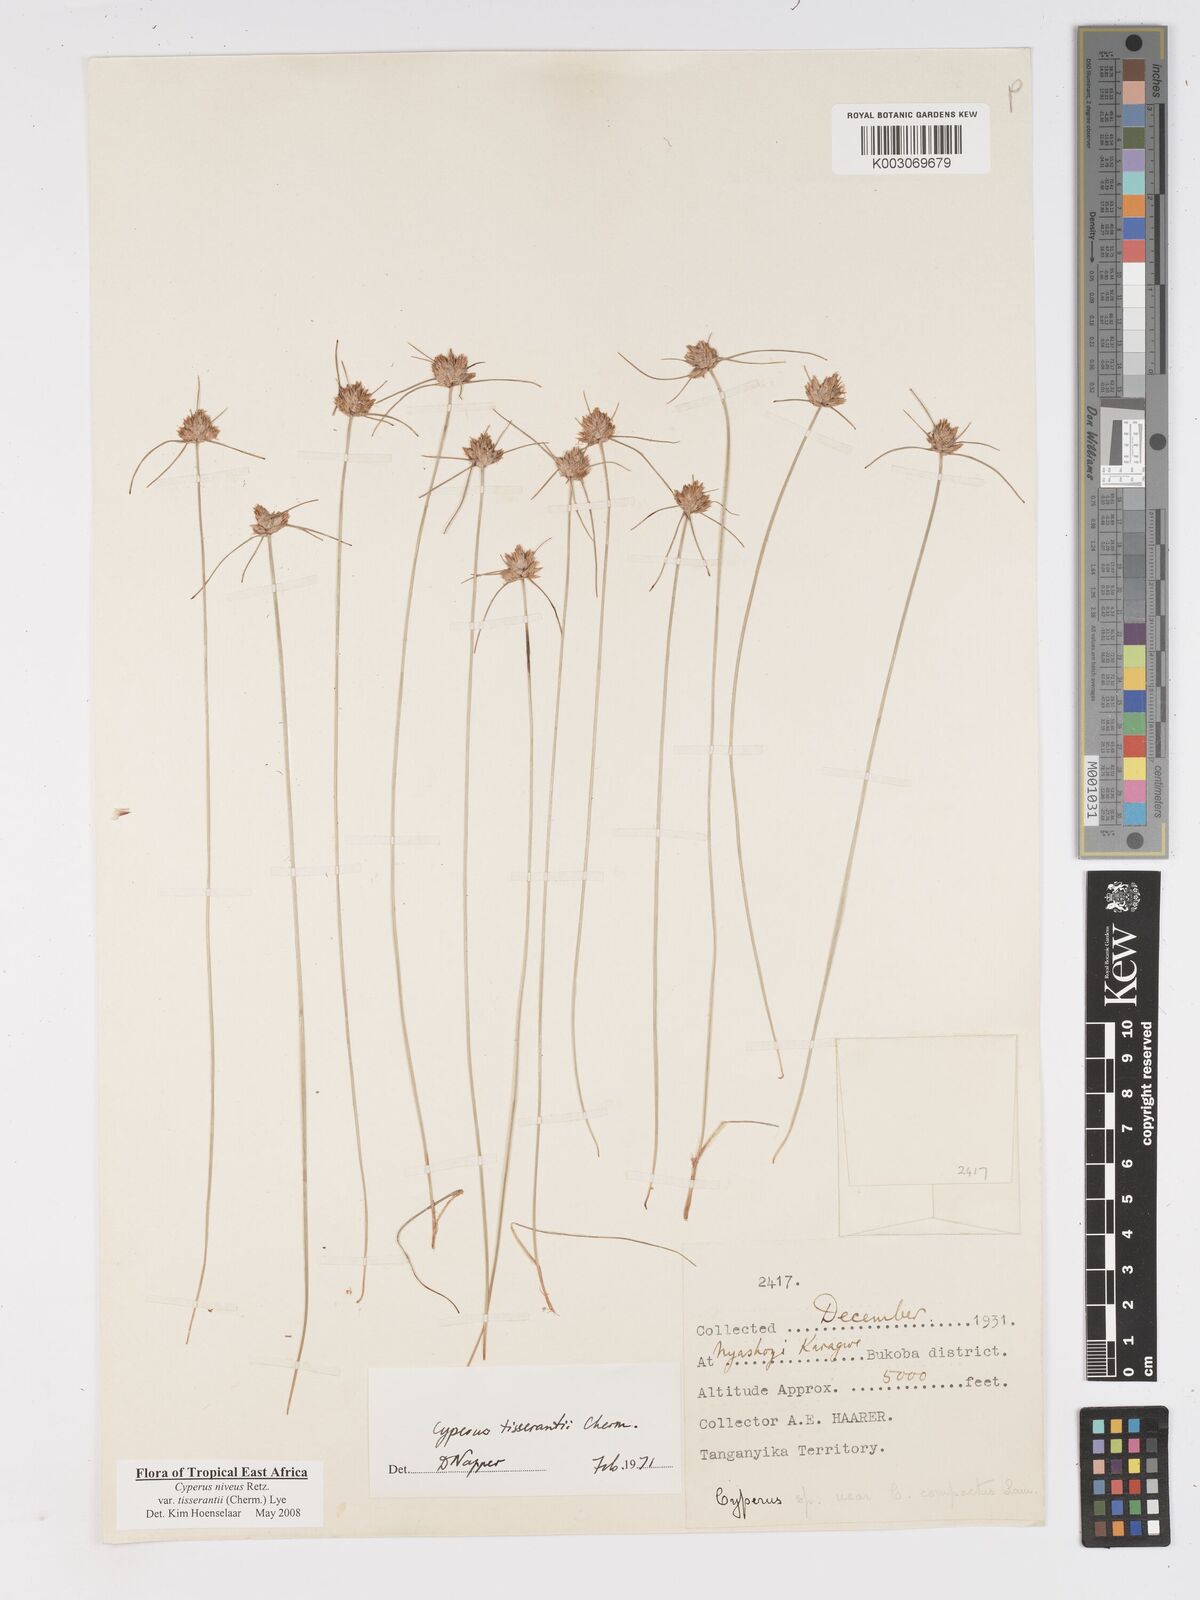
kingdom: Plantae
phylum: Tracheophyta
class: Liliopsida
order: Poales
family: Cyperaceae
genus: Cyperus
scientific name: Cyperus niveus
